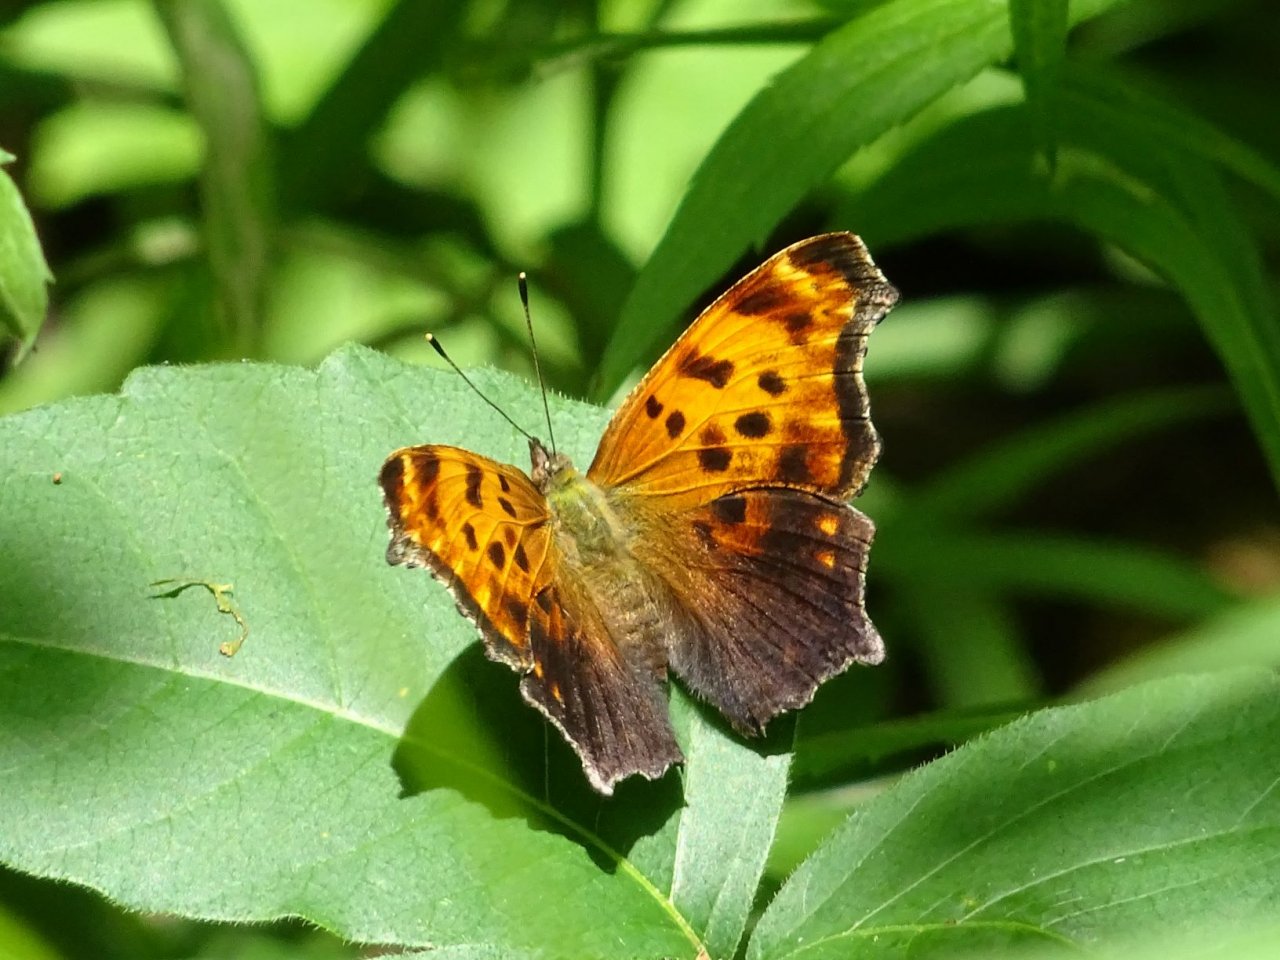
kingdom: Animalia
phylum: Arthropoda
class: Insecta
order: Lepidoptera
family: Nymphalidae
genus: Polygonia
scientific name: Polygonia comma
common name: Eastern Comma
